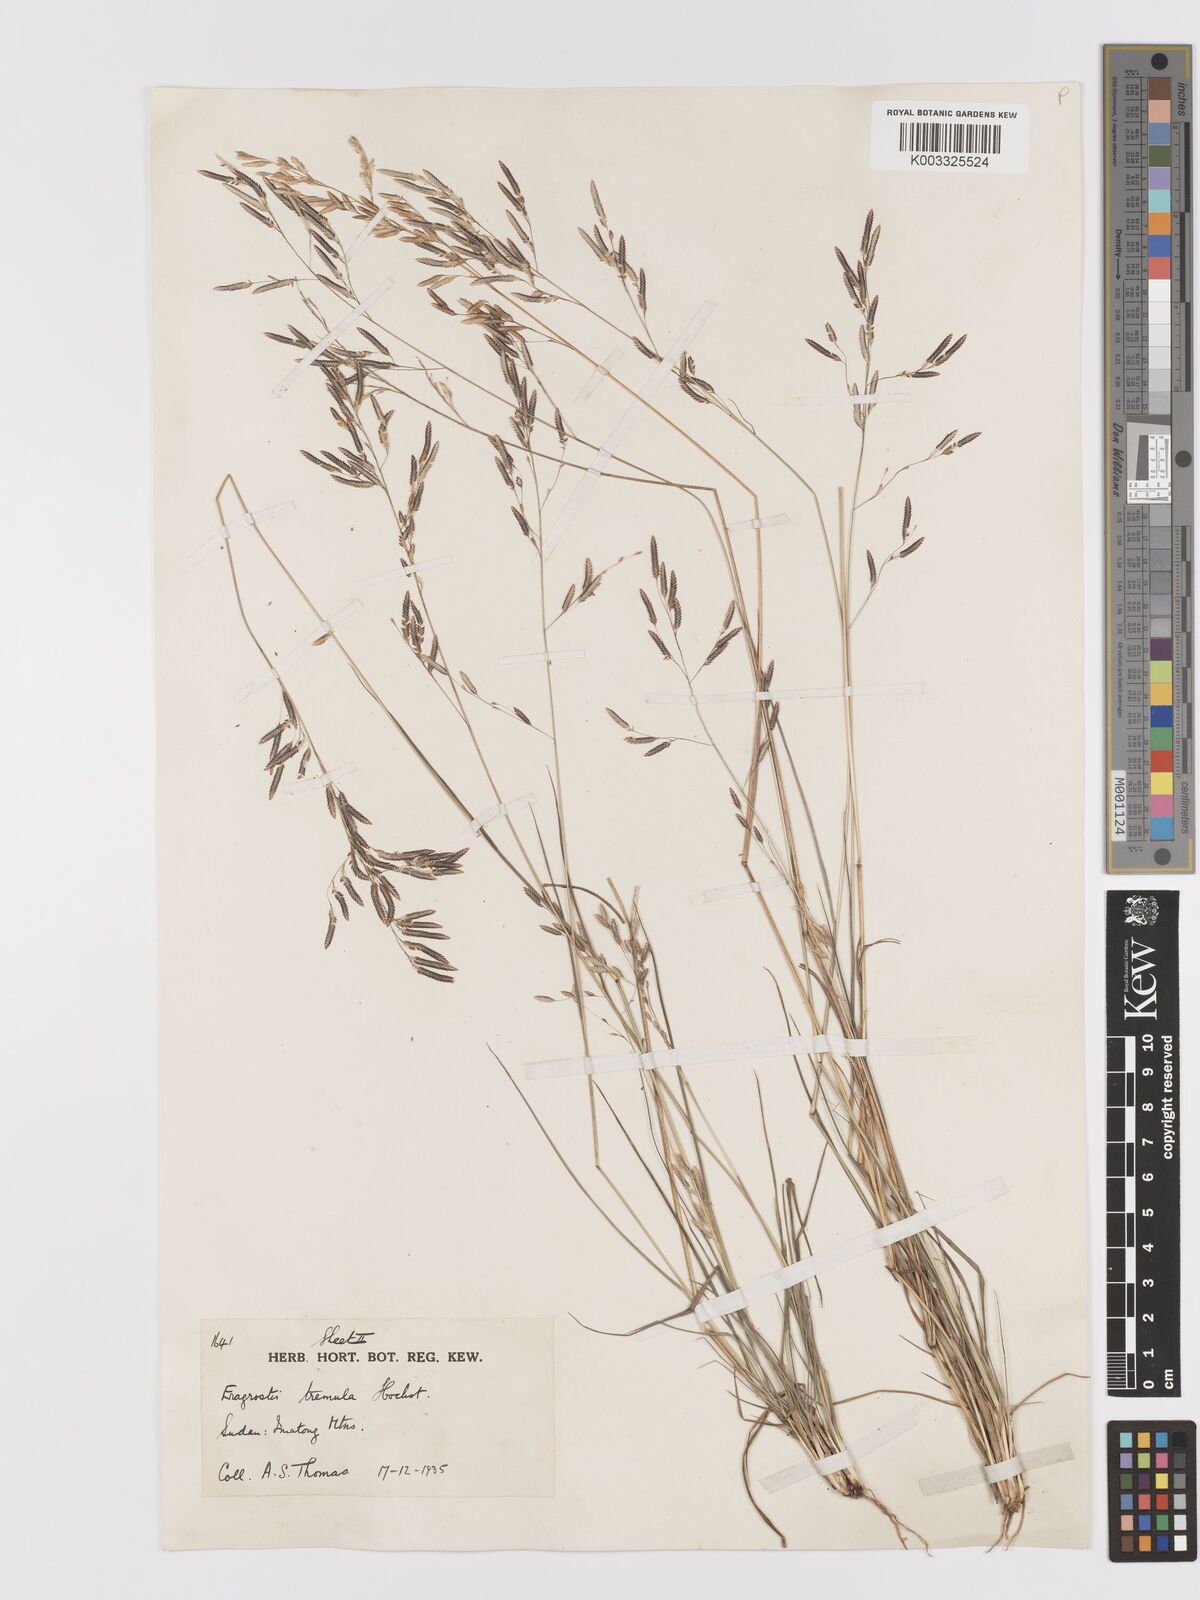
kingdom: Plantae
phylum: Tracheophyta
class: Liliopsida
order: Poales
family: Poaceae
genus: Eragrostis
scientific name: Eragrostis tremula
